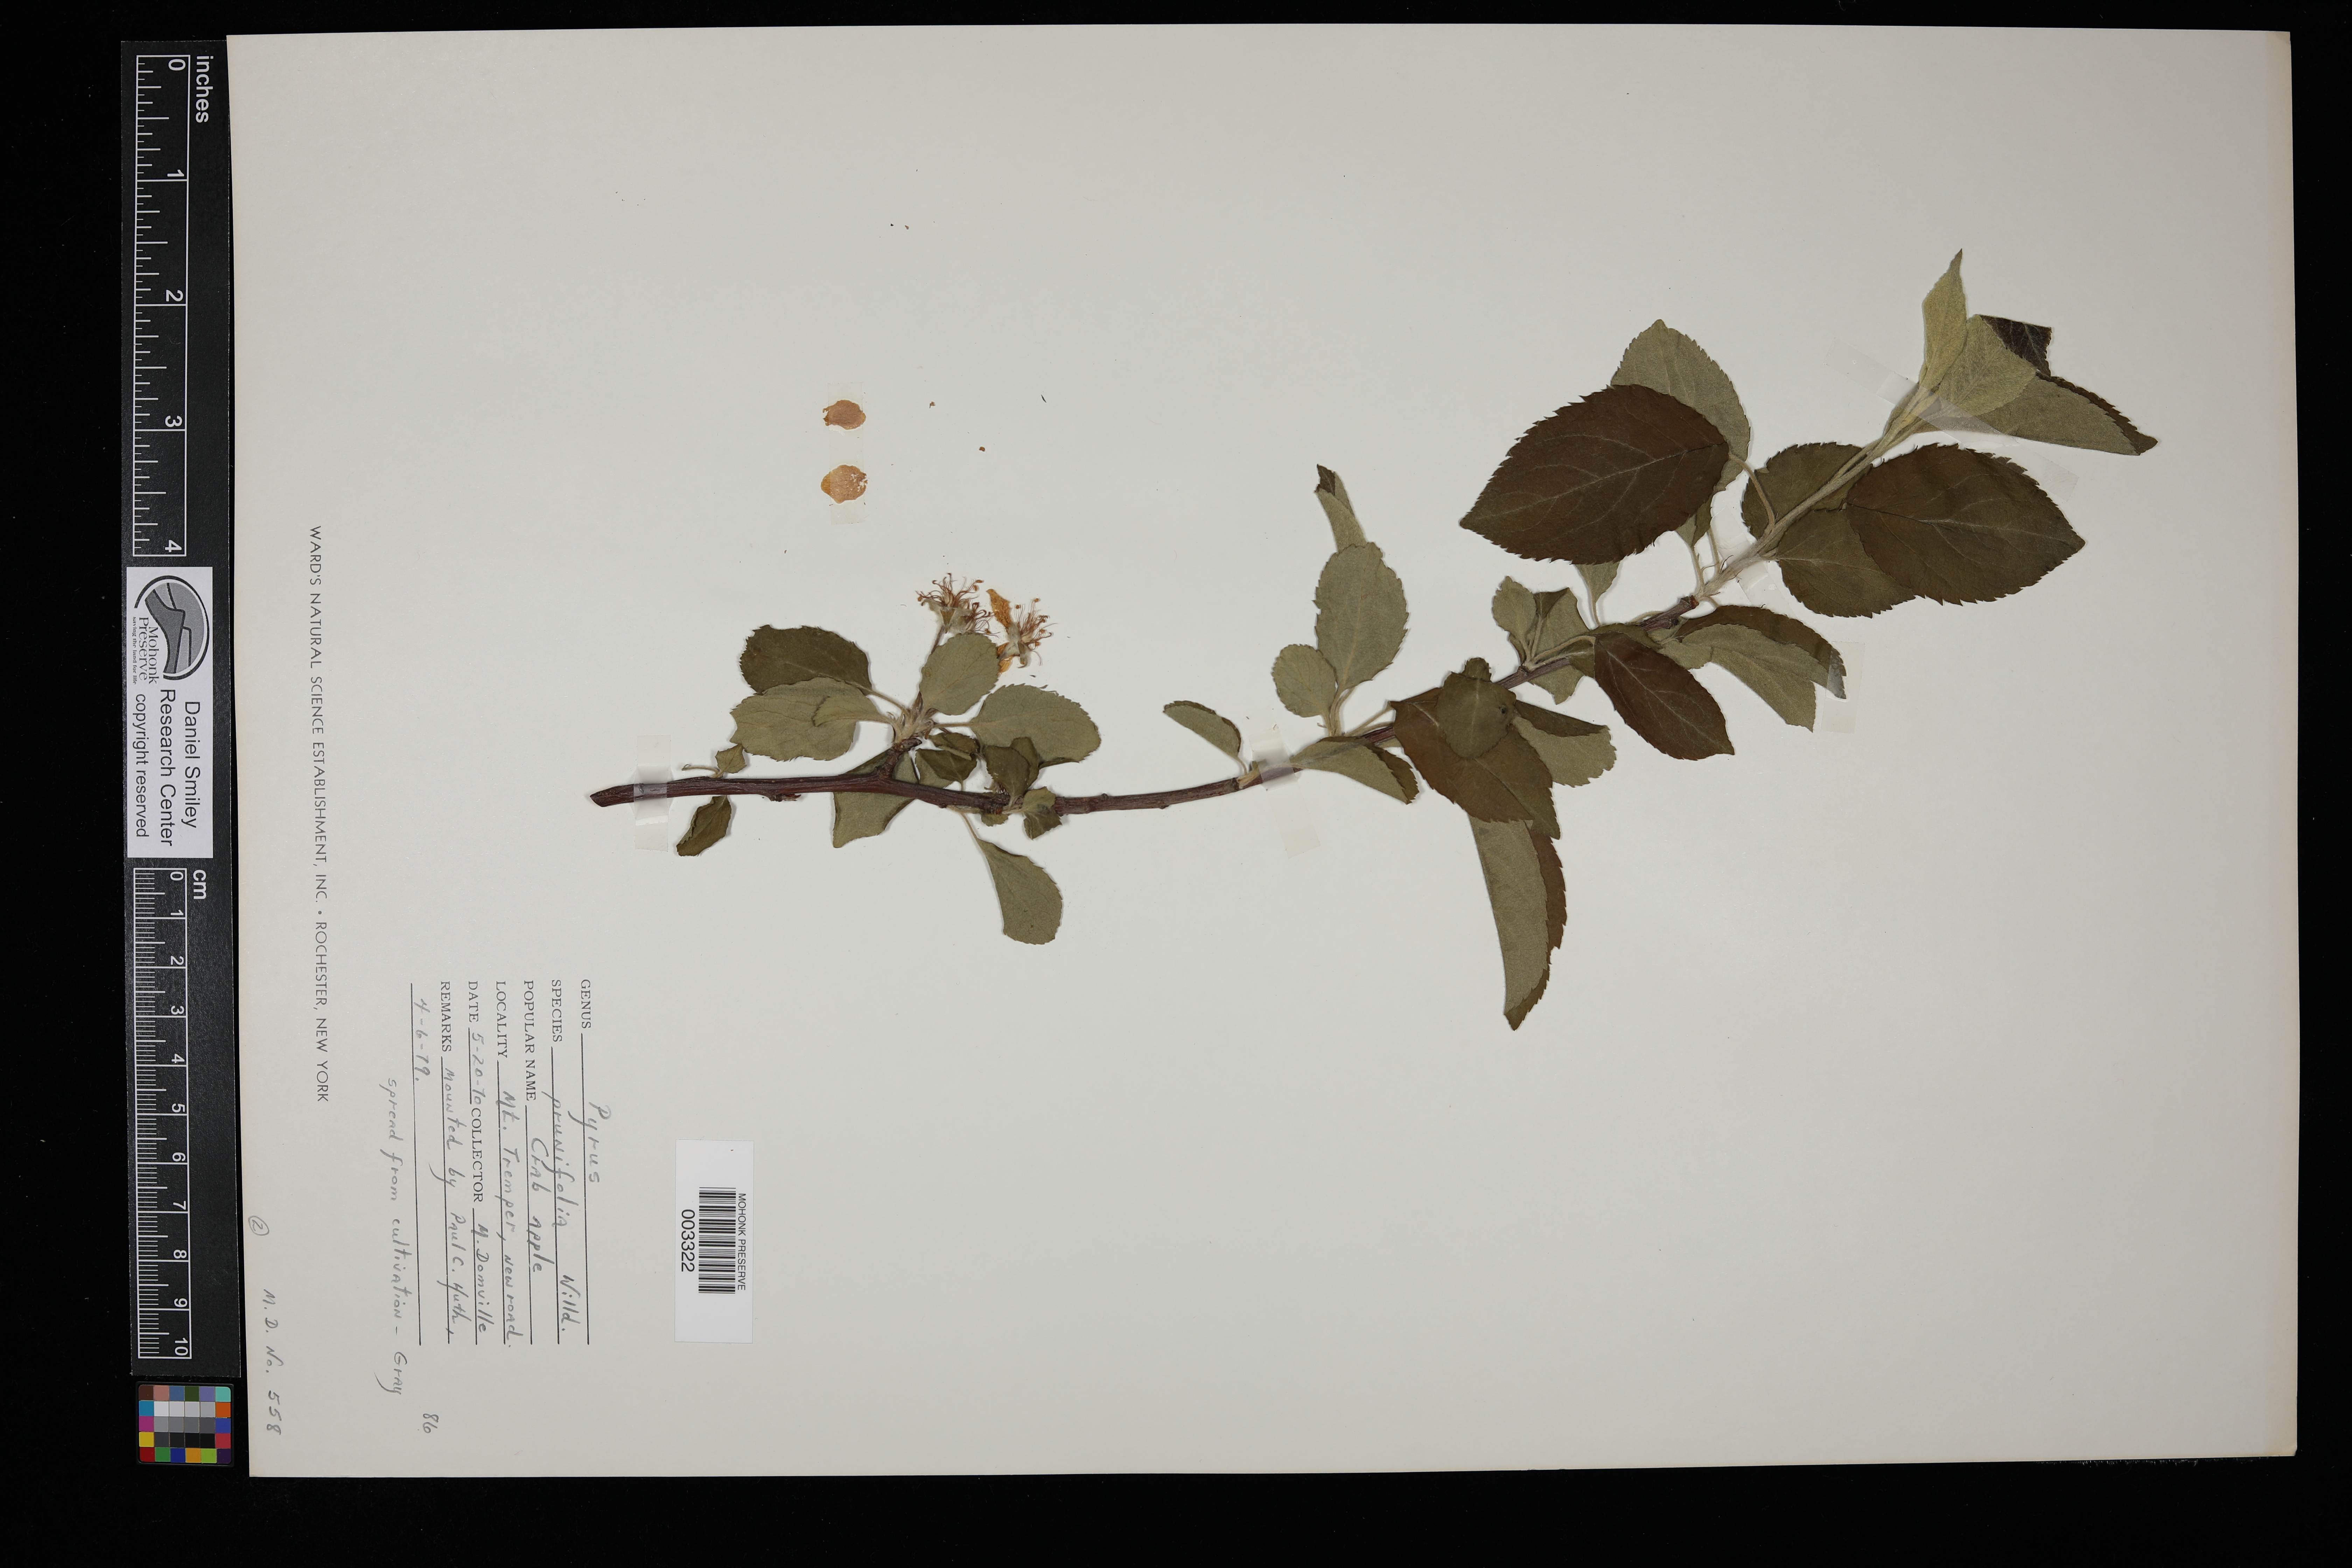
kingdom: Plantae
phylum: Tracheophyta
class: Magnoliopsida
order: Rosales
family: Rosaceae
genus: Malus
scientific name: Malus prunifolia
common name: Chinese apple
